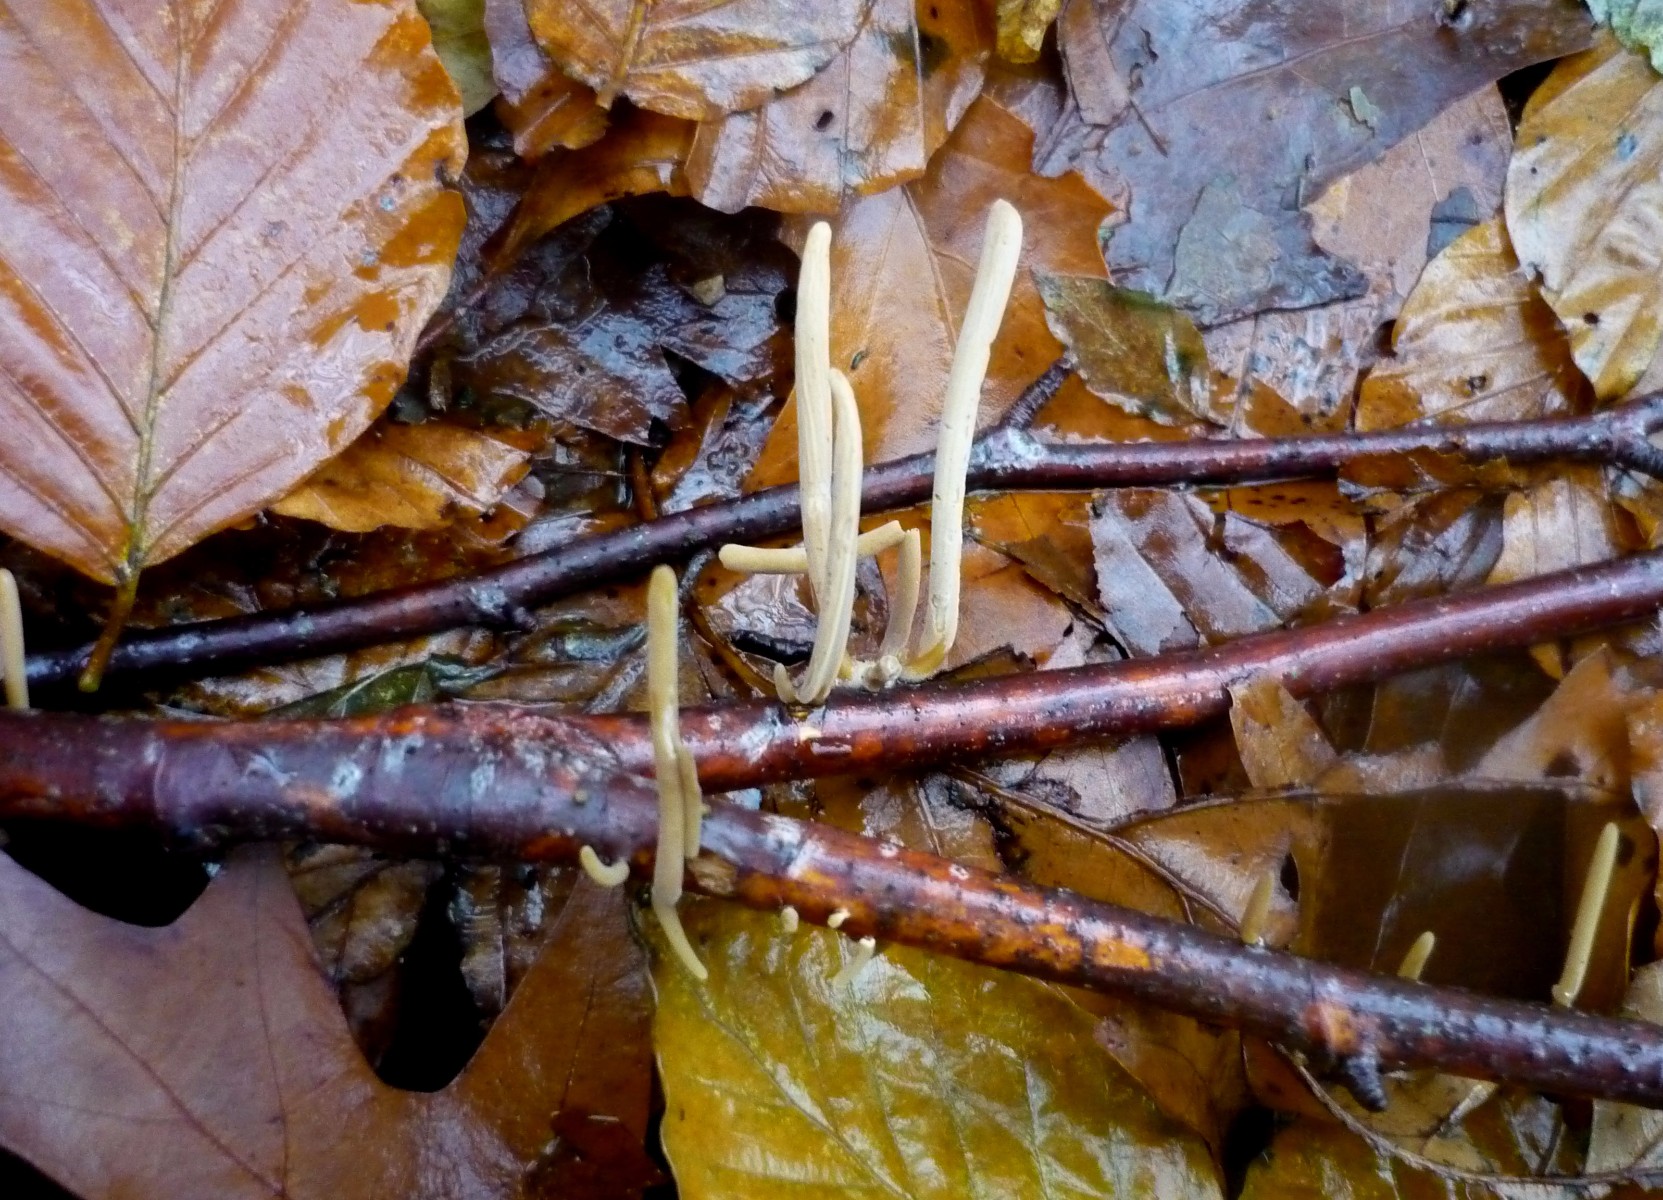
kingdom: Fungi
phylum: Basidiomycota
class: Agaricomycetes
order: Agaricales
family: Typhulaceae
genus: Typhula
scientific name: Typhula fistulosa
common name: pibet rørkølle
